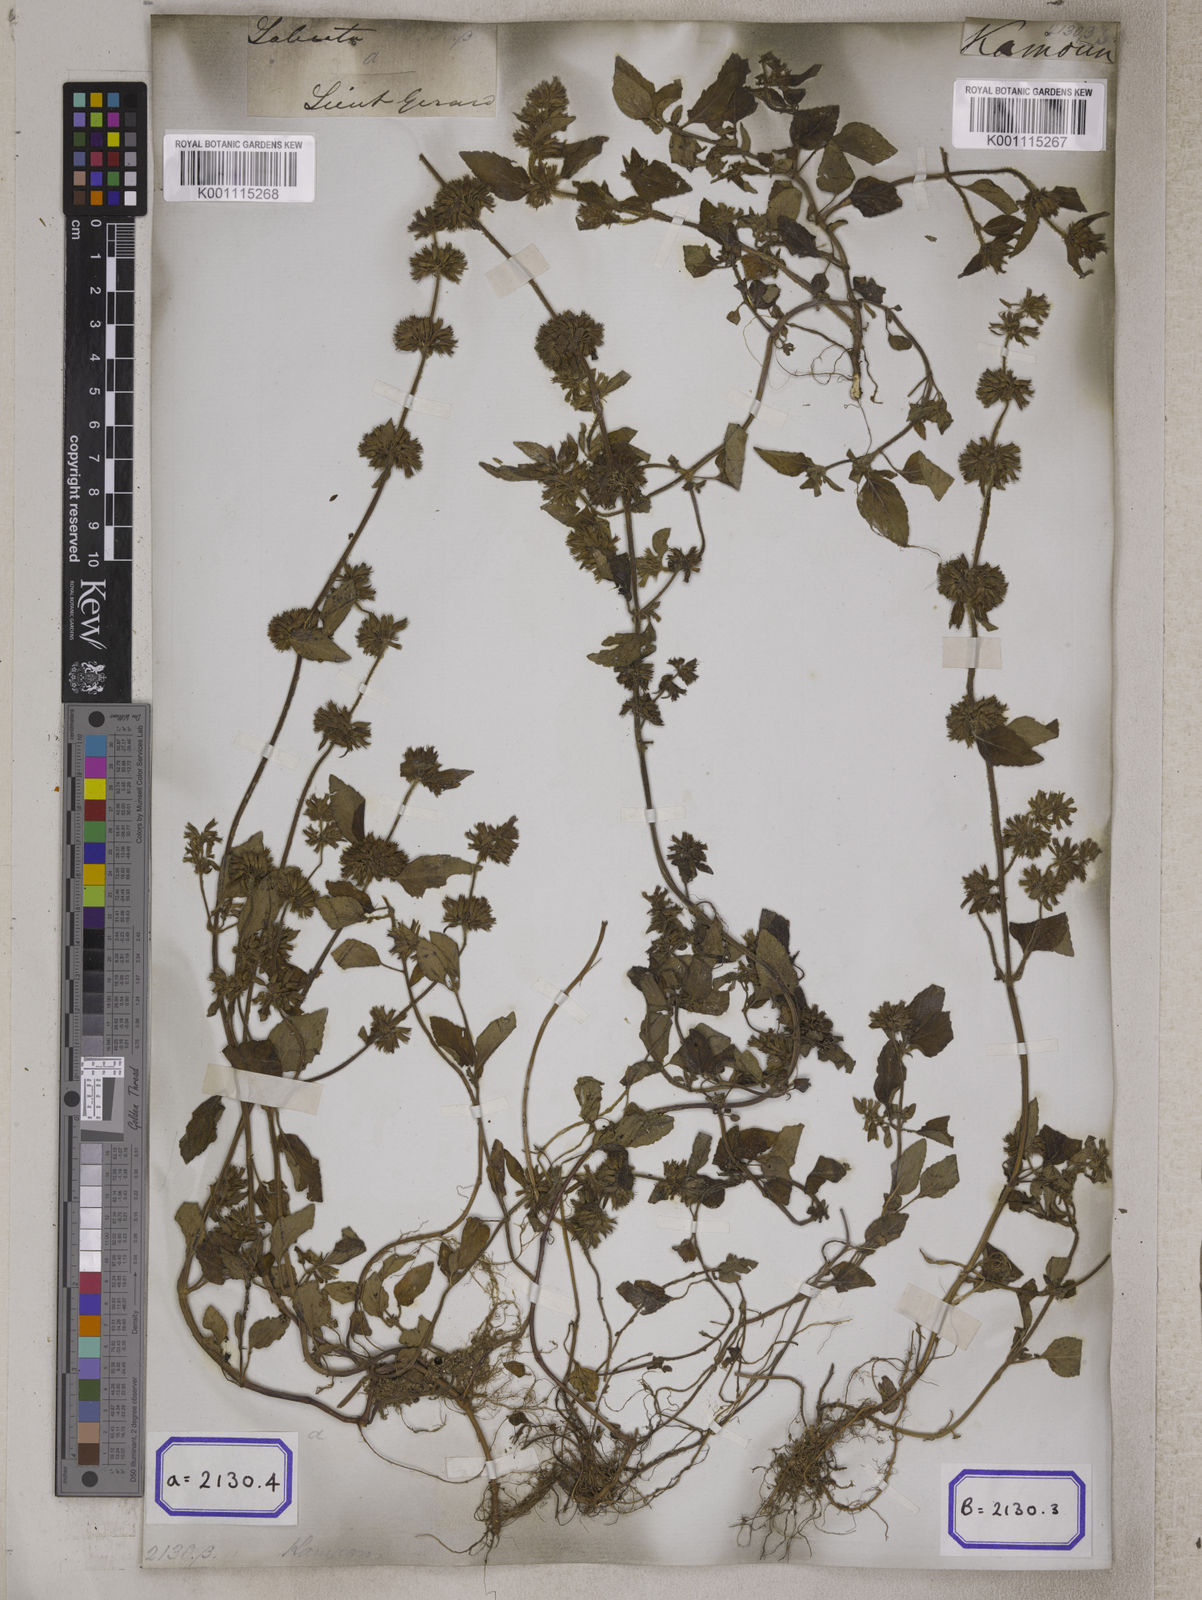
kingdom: Plantae
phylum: Tracheophyta
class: Magnoliopsida
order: Lamiales
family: Lamiaceae
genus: Clinopodium
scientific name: Clinopodium
